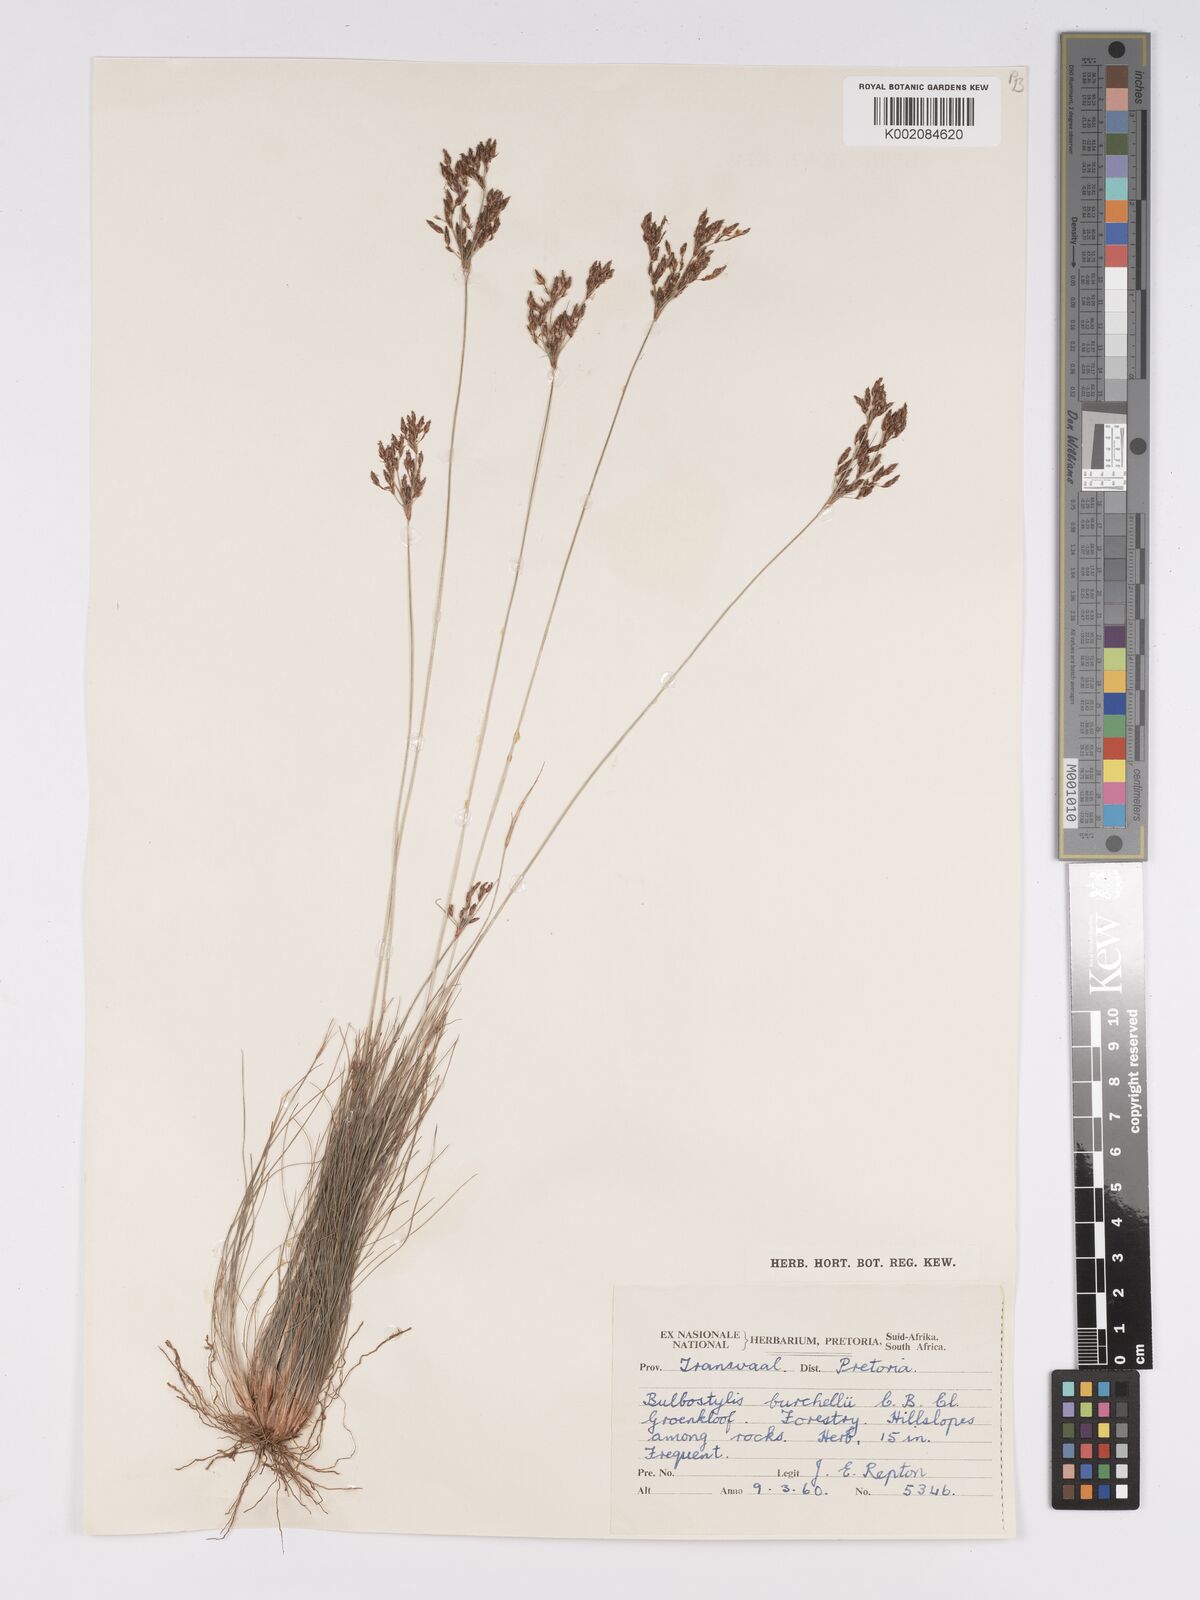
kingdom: Plantae
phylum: Tracheophyta
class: Liliopsida
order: Poales
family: Cyperaceae
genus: Bulbostylis
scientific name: Bulbostylis burchellii
